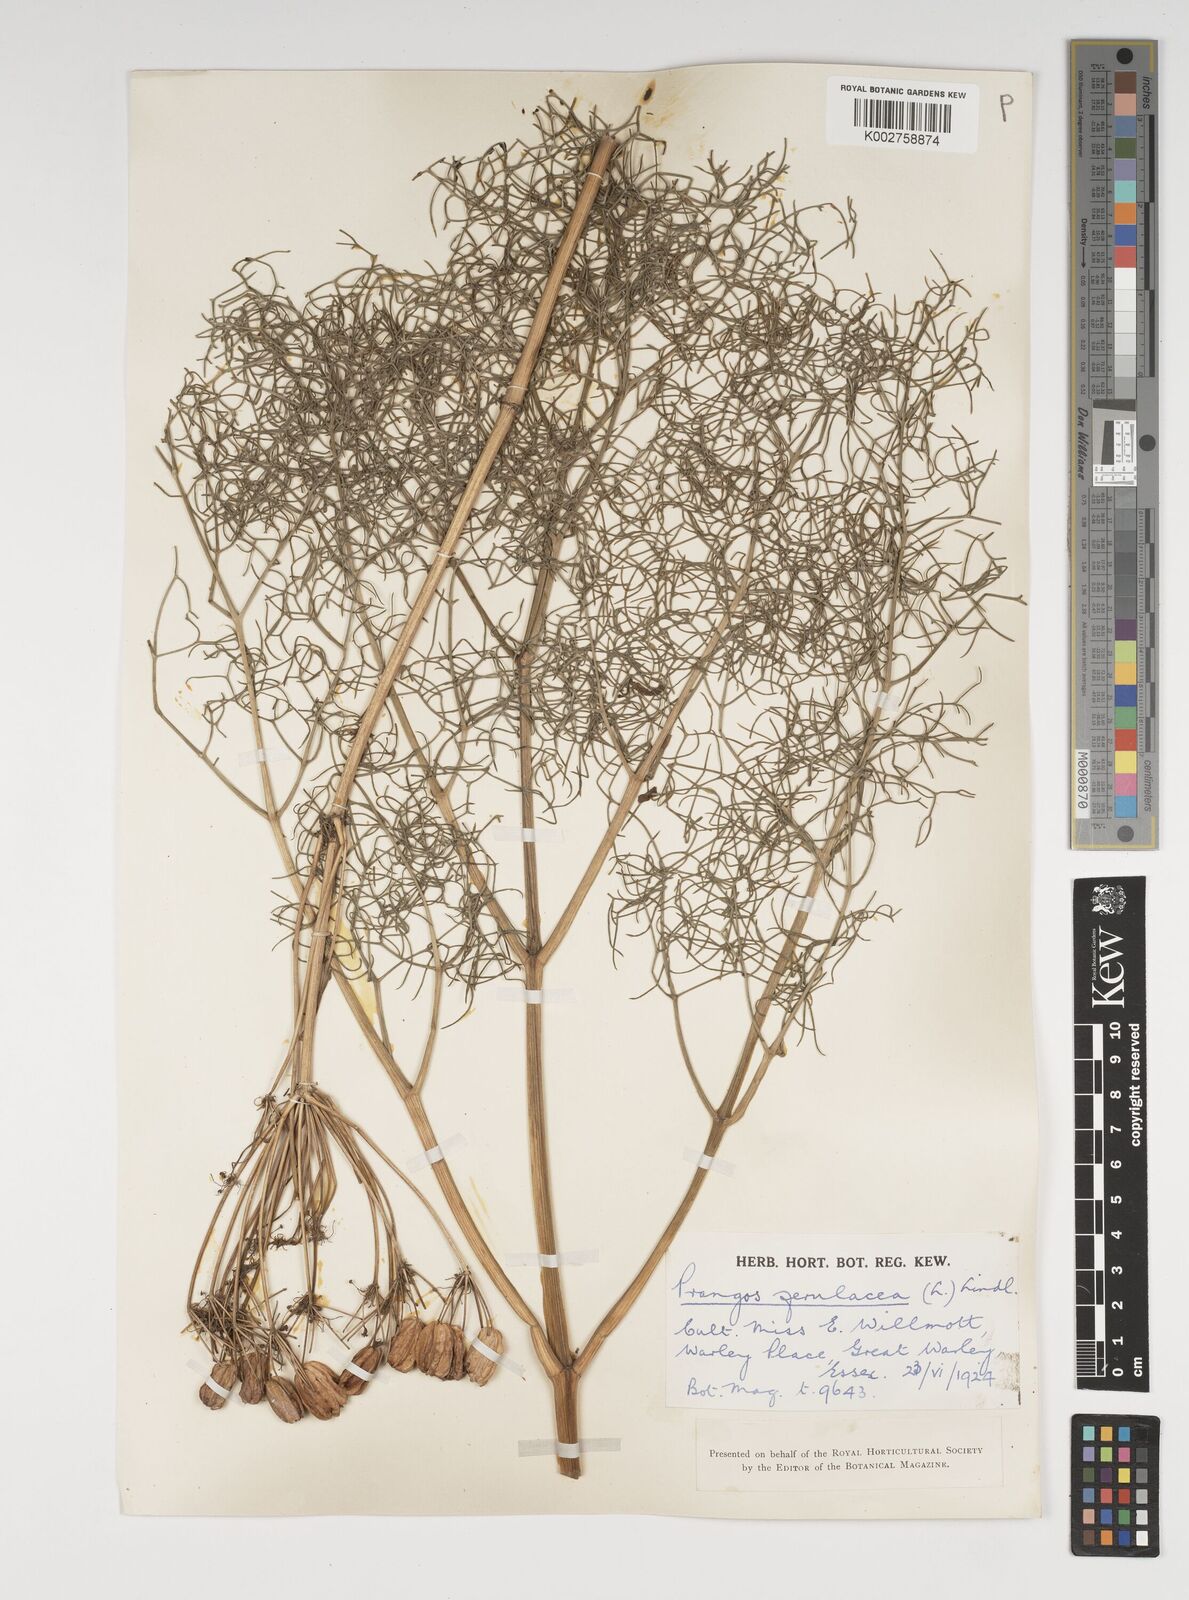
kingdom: Plantae
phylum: Tracheophyta
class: Magnoliopsida
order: Apiales
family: Apiaceae
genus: Prangos
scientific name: Prangos ferulacea
